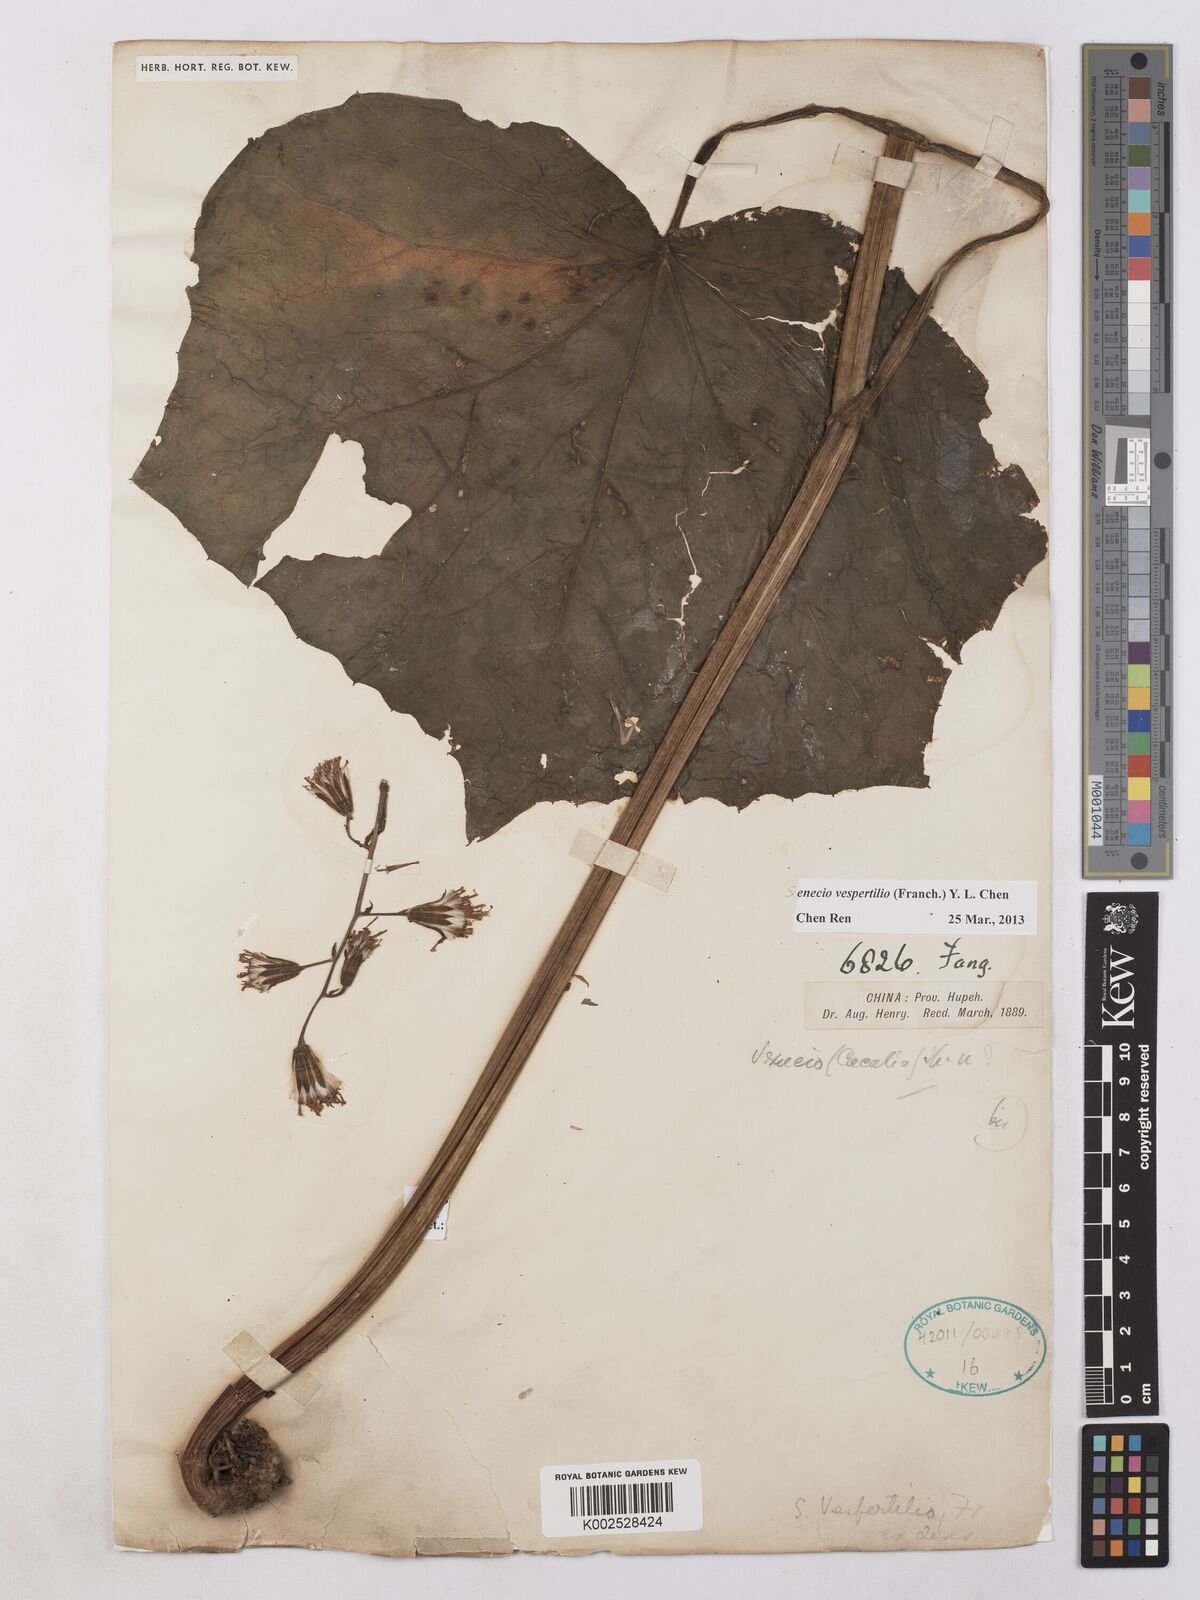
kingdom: Plantae
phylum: Tracheophyta
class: Magnoliopsida
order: Asterales
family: Asteraceae
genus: Parasenecio
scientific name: Parasenecio vespertilo
